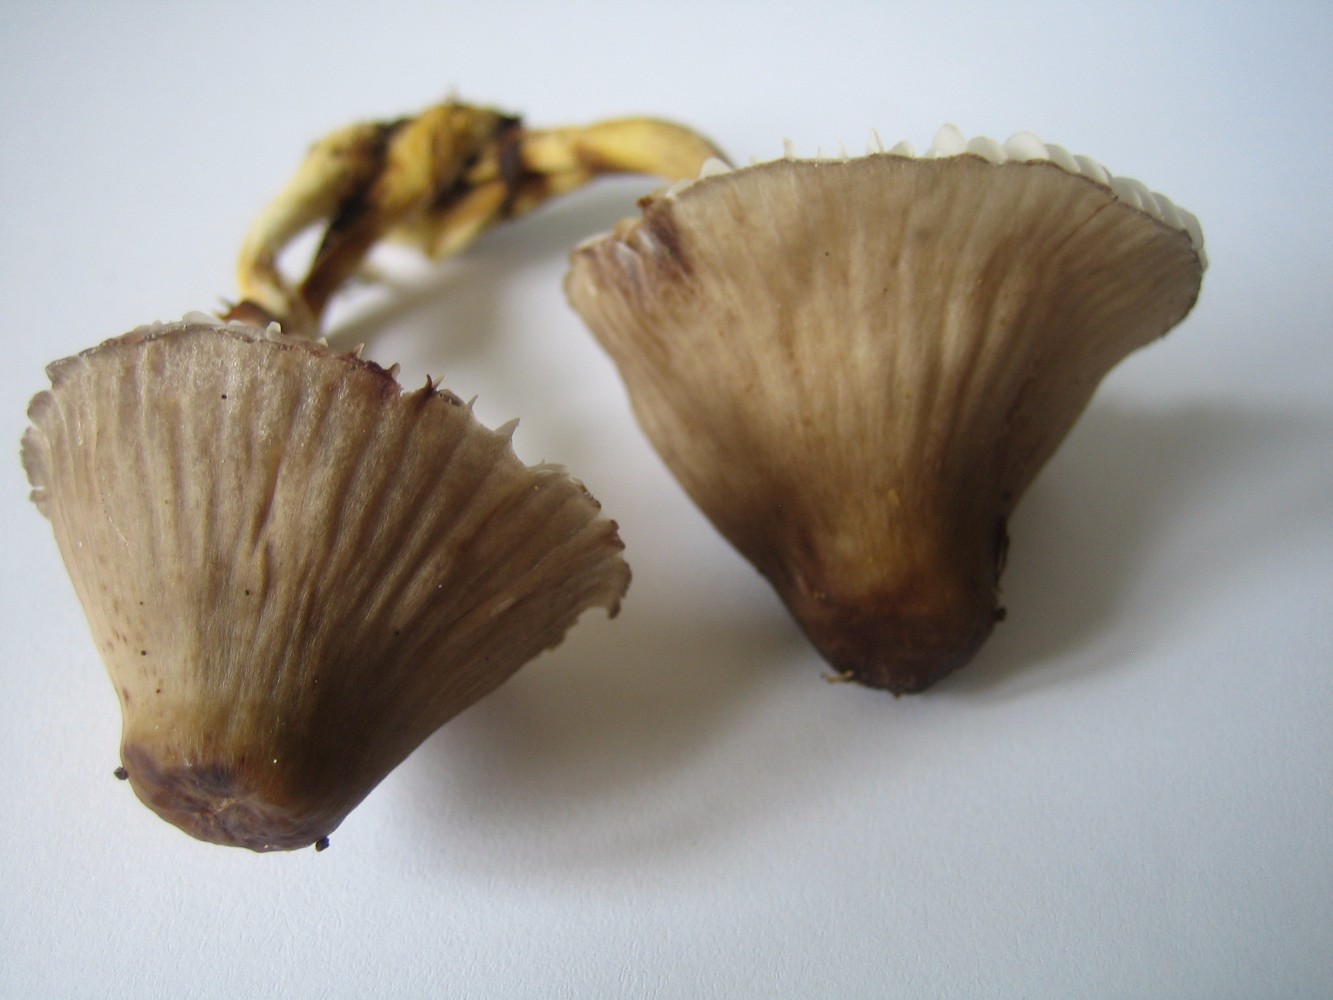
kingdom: Fungi
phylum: Basidiomycota
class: Agaricomycetes
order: Agaricales
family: Mycenaceae
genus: Mycena
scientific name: Mycena inclinata
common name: nikkende huesvamp
